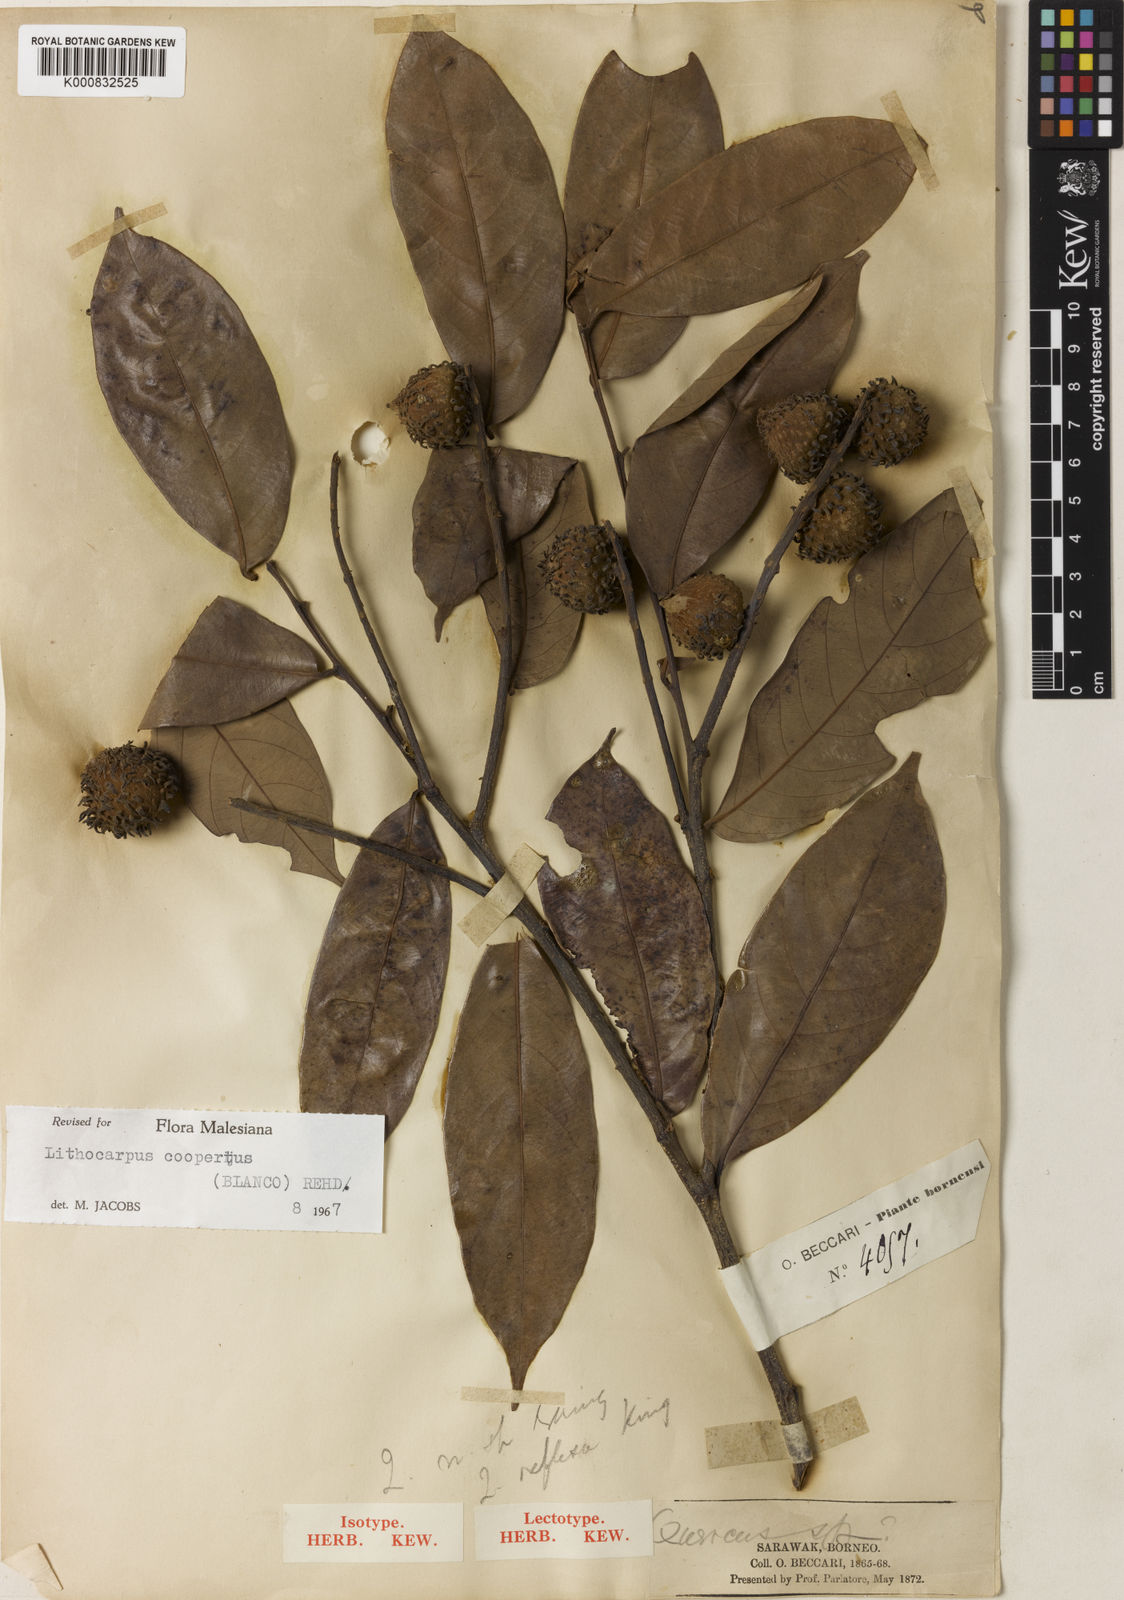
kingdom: Plantae
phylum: Tracheophyta
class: Magnoliopsida
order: Fagales
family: Fagaceae
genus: Lithocarpus
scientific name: Lithocarpus coopertus
